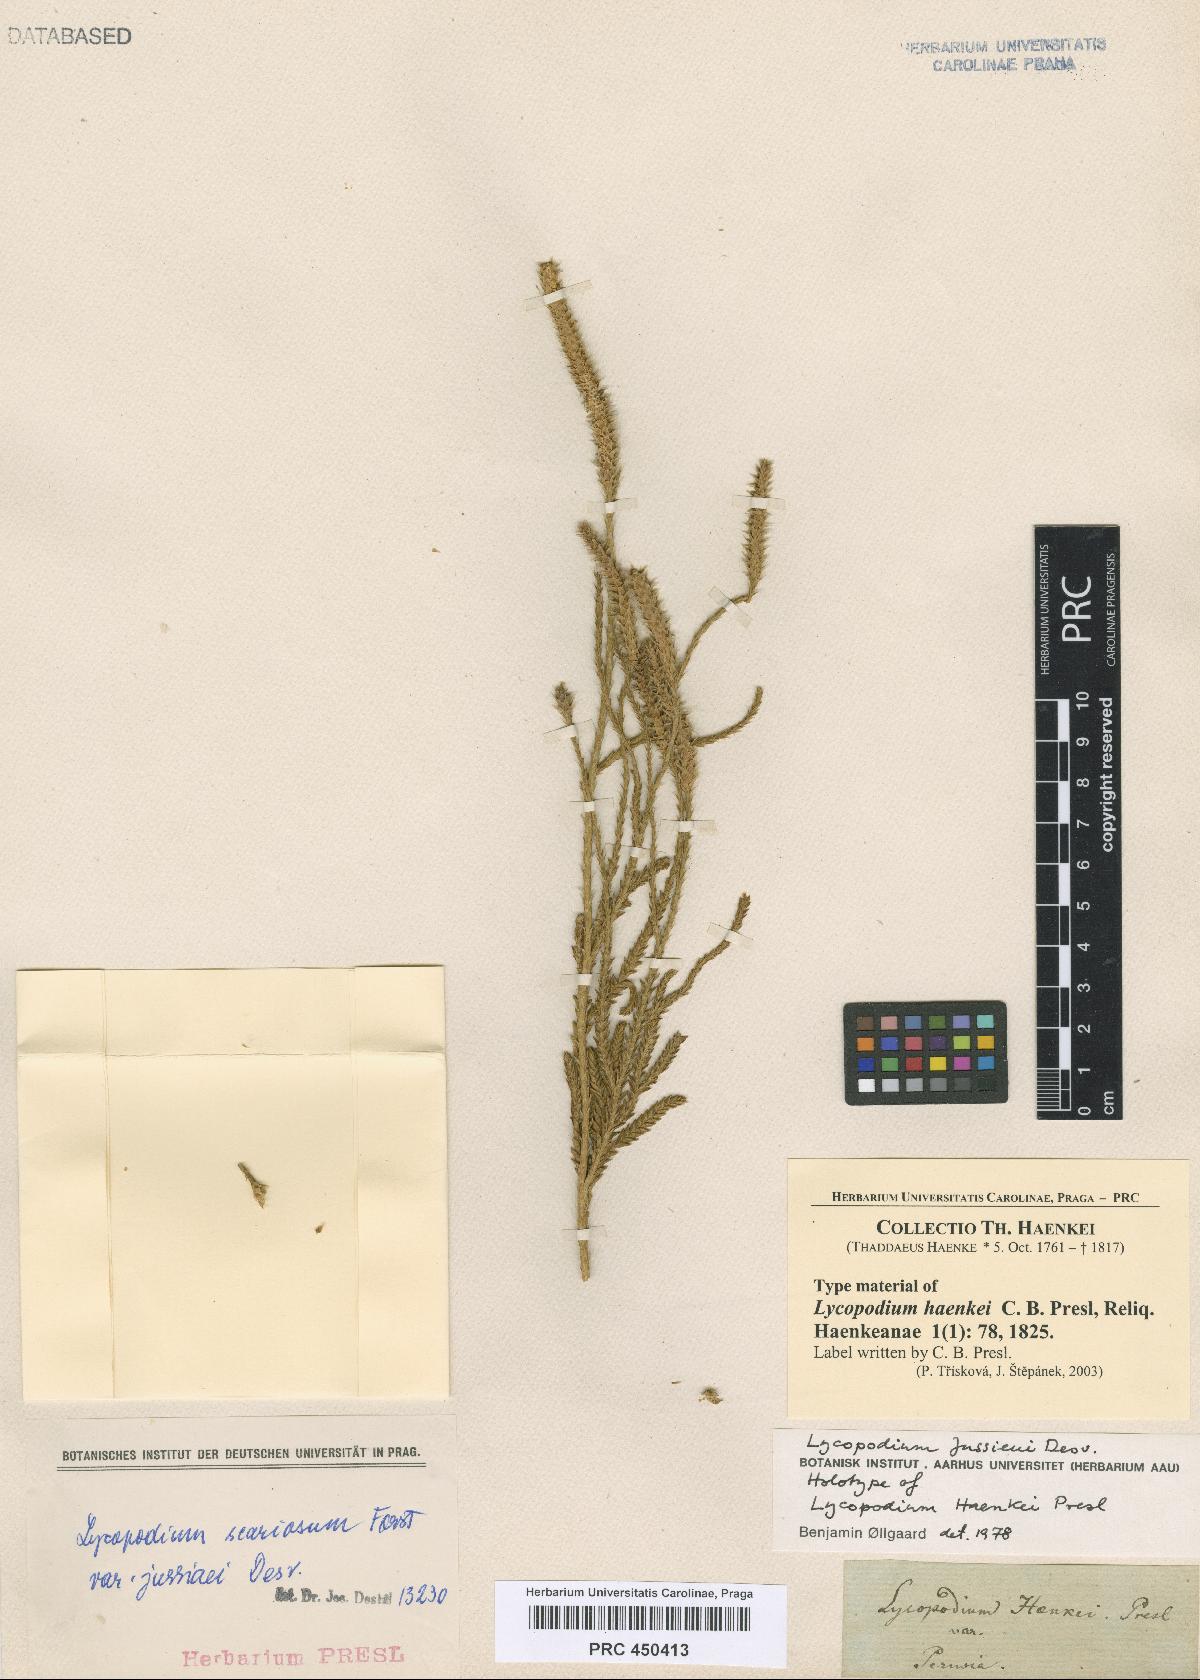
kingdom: Plantae
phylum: Tracheophyta
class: Lycopodiopsida
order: Lycopodiales
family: Lycopodiaceae
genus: Diphasium
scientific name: Diphasium jussiaei
